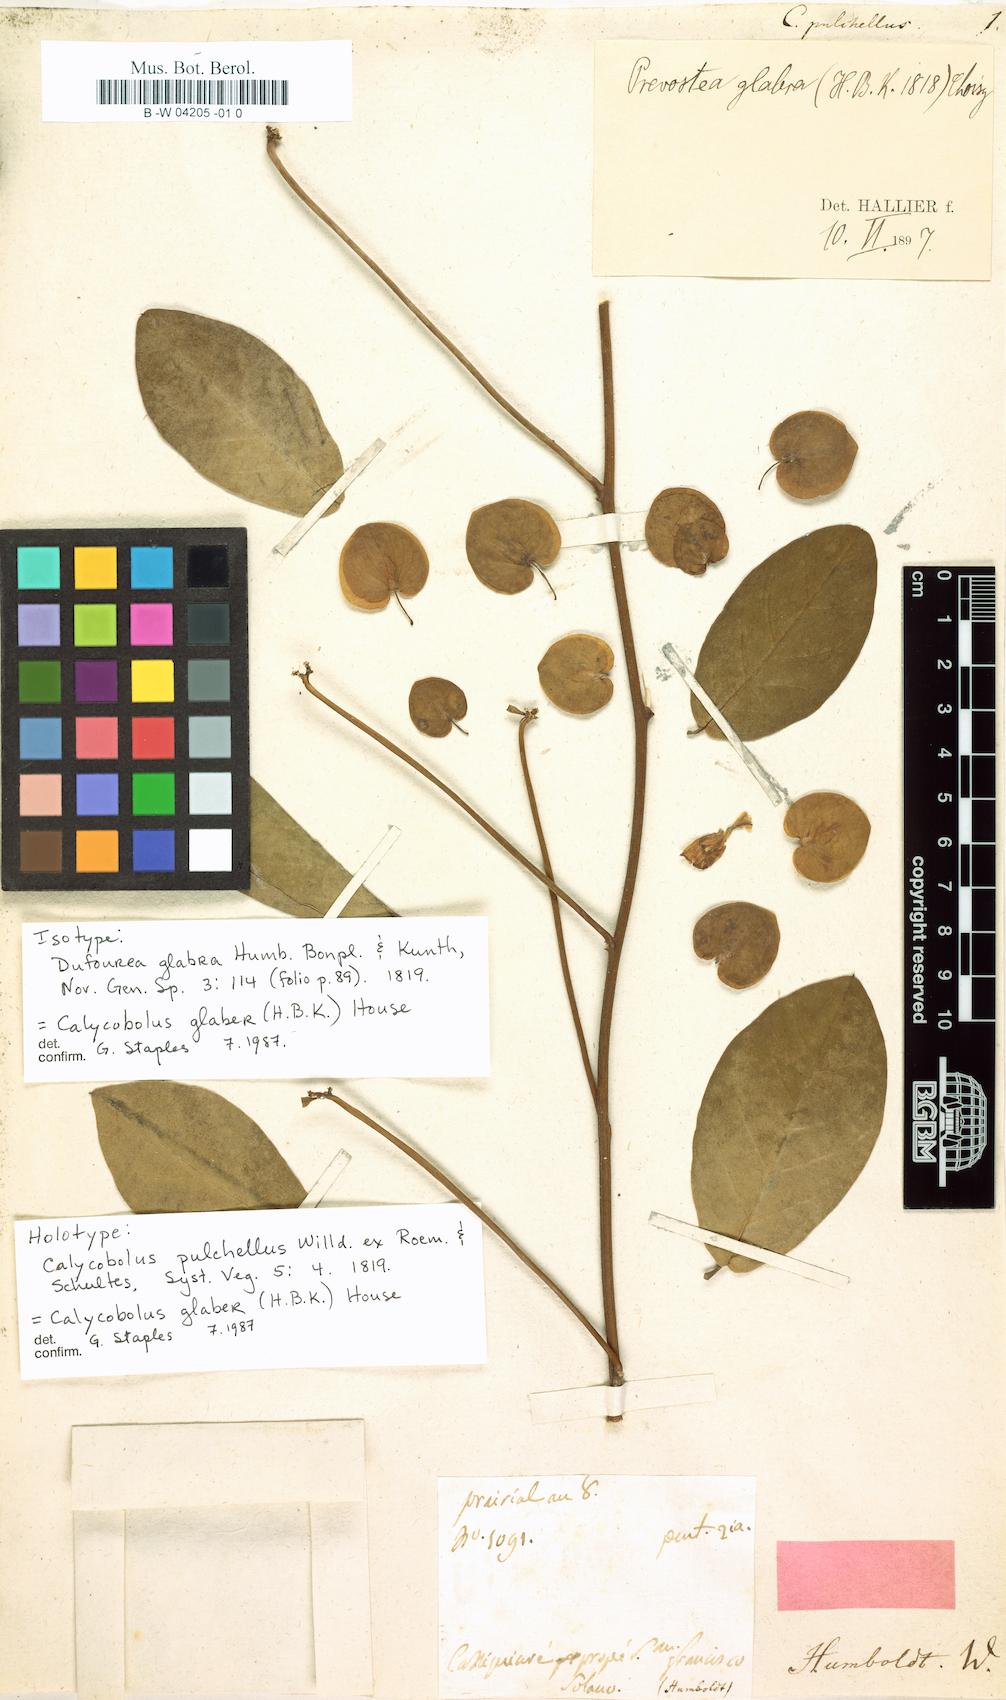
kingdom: Plantae
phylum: Tracheophyta
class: Magnoliopsida
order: Solanales
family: Convolvulaceae
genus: Calycobolus
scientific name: Calycobolus glaber
